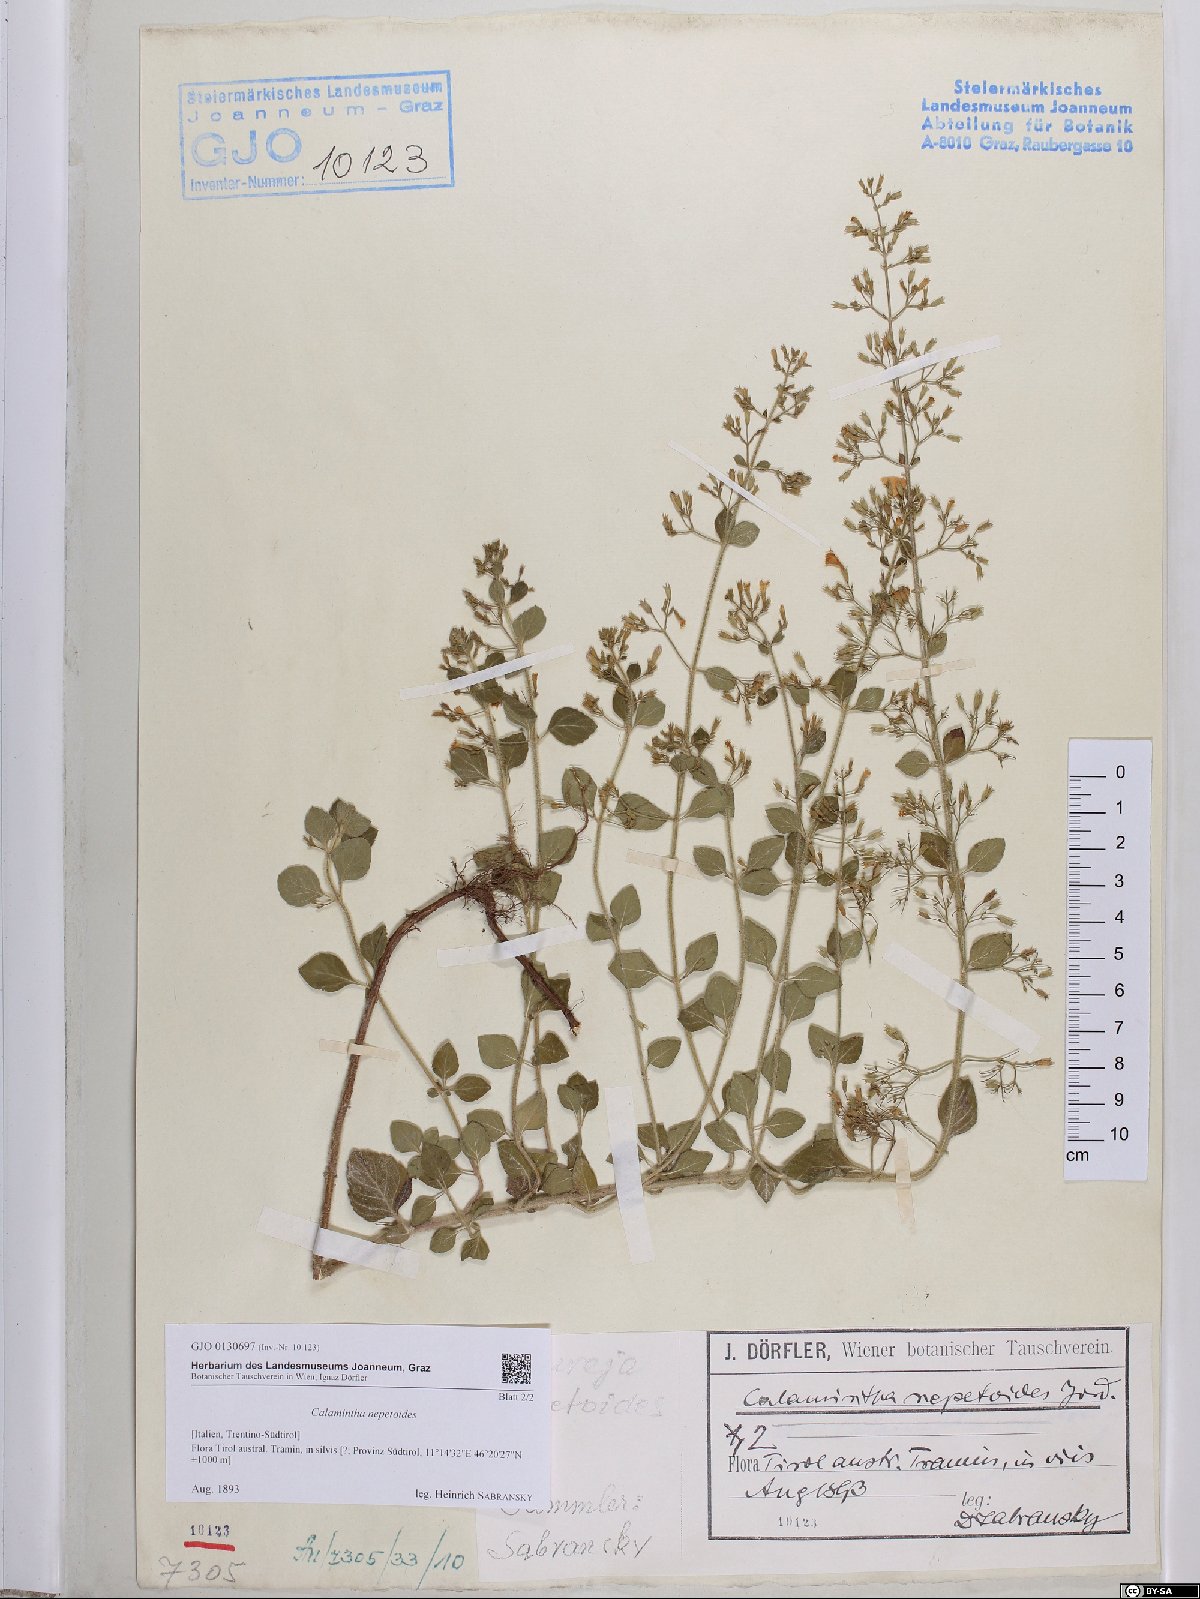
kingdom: Plantae
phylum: Tracheophyta
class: Magnoliopsida
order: Lamiales
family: Lamiaceae
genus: Clinopodium
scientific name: Clinopodium nepeta
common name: Lesser calamint
